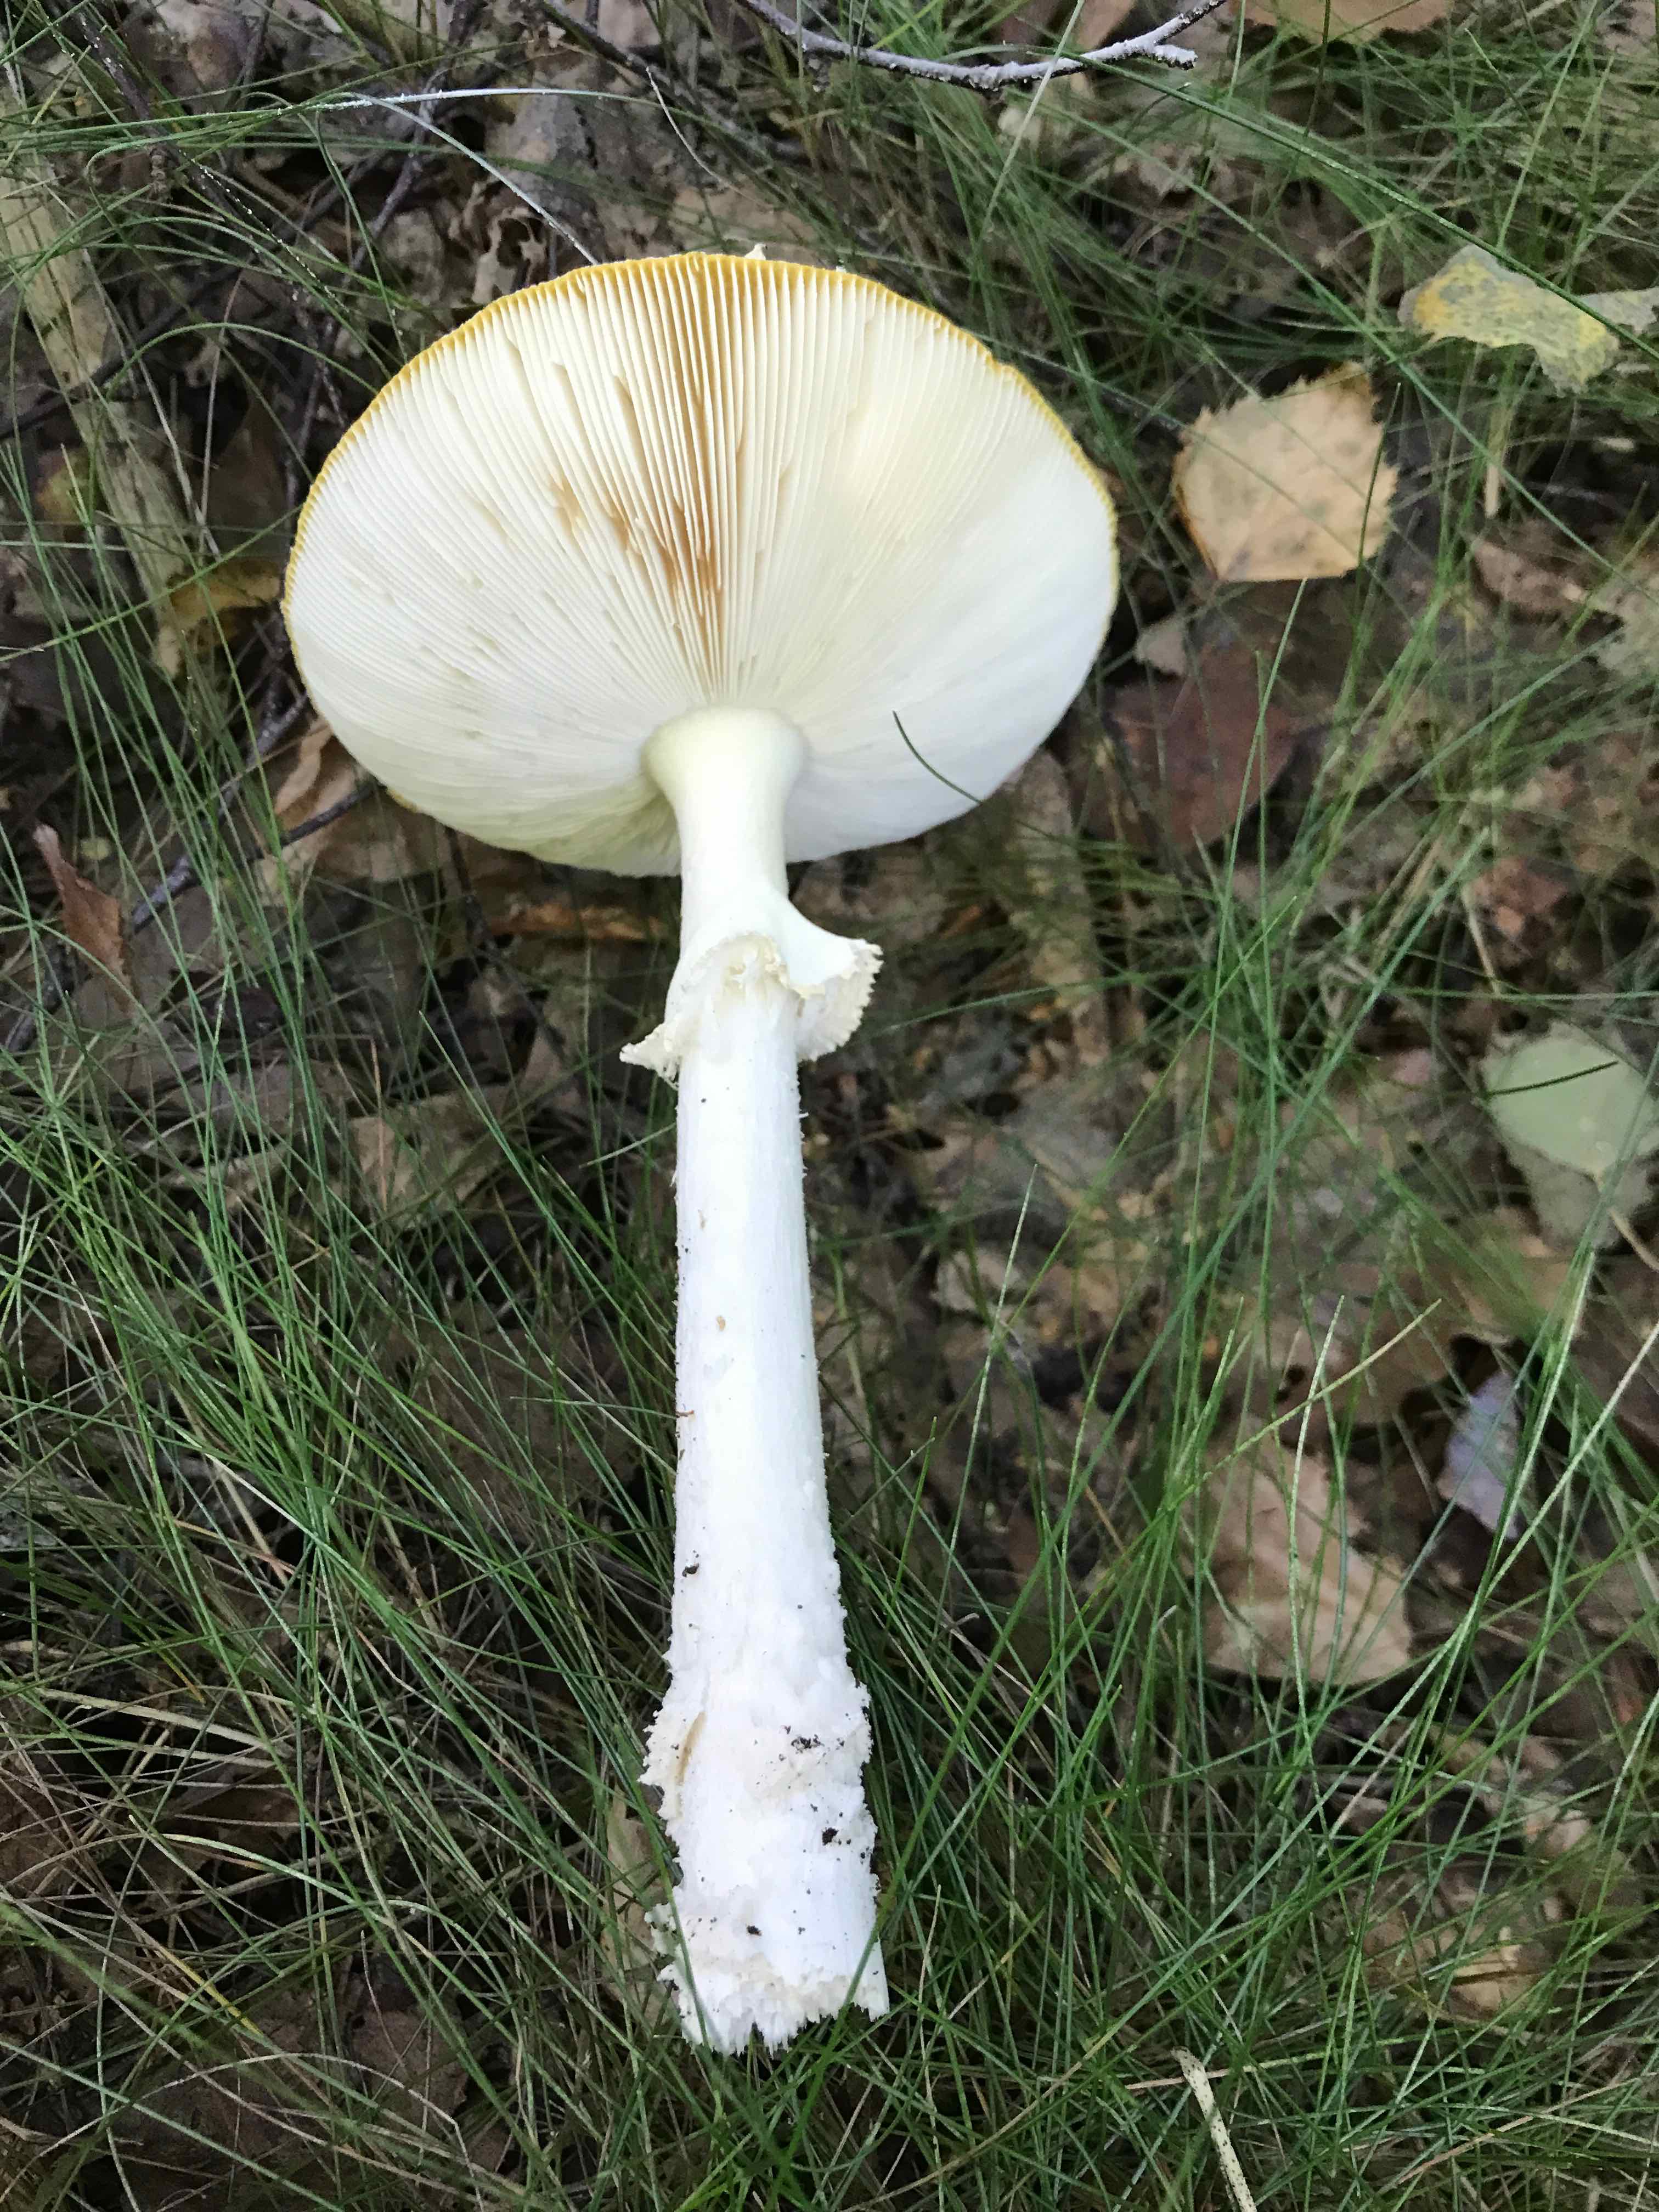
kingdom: Fungi
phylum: Basidiomycota
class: Agaricomycetes
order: Agaricales
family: Amanitaceae
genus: Amanita
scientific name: Amanita muscaria
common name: rød fluesvamp
